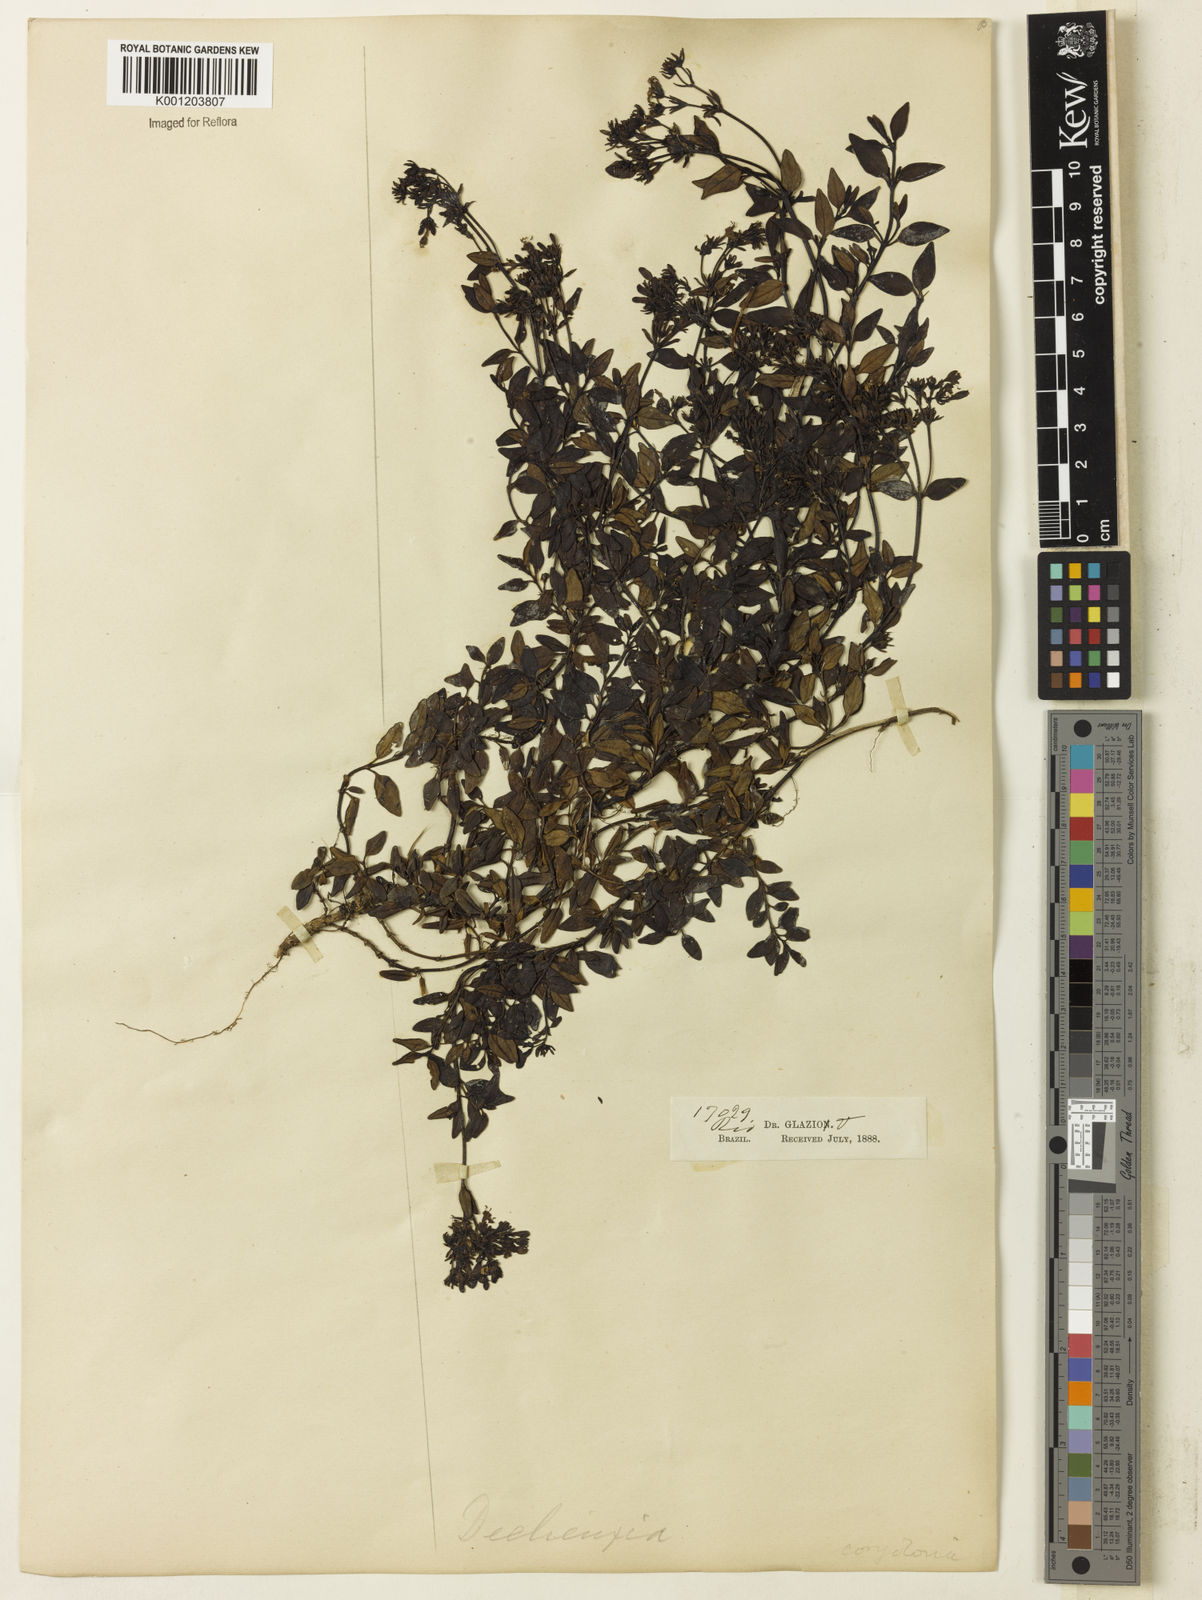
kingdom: Plantae
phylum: Tracheophyta
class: Magnoliopsida
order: Gentianales
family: Rubiaceae
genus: Declieuxia
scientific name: Declieuxia coerulea
